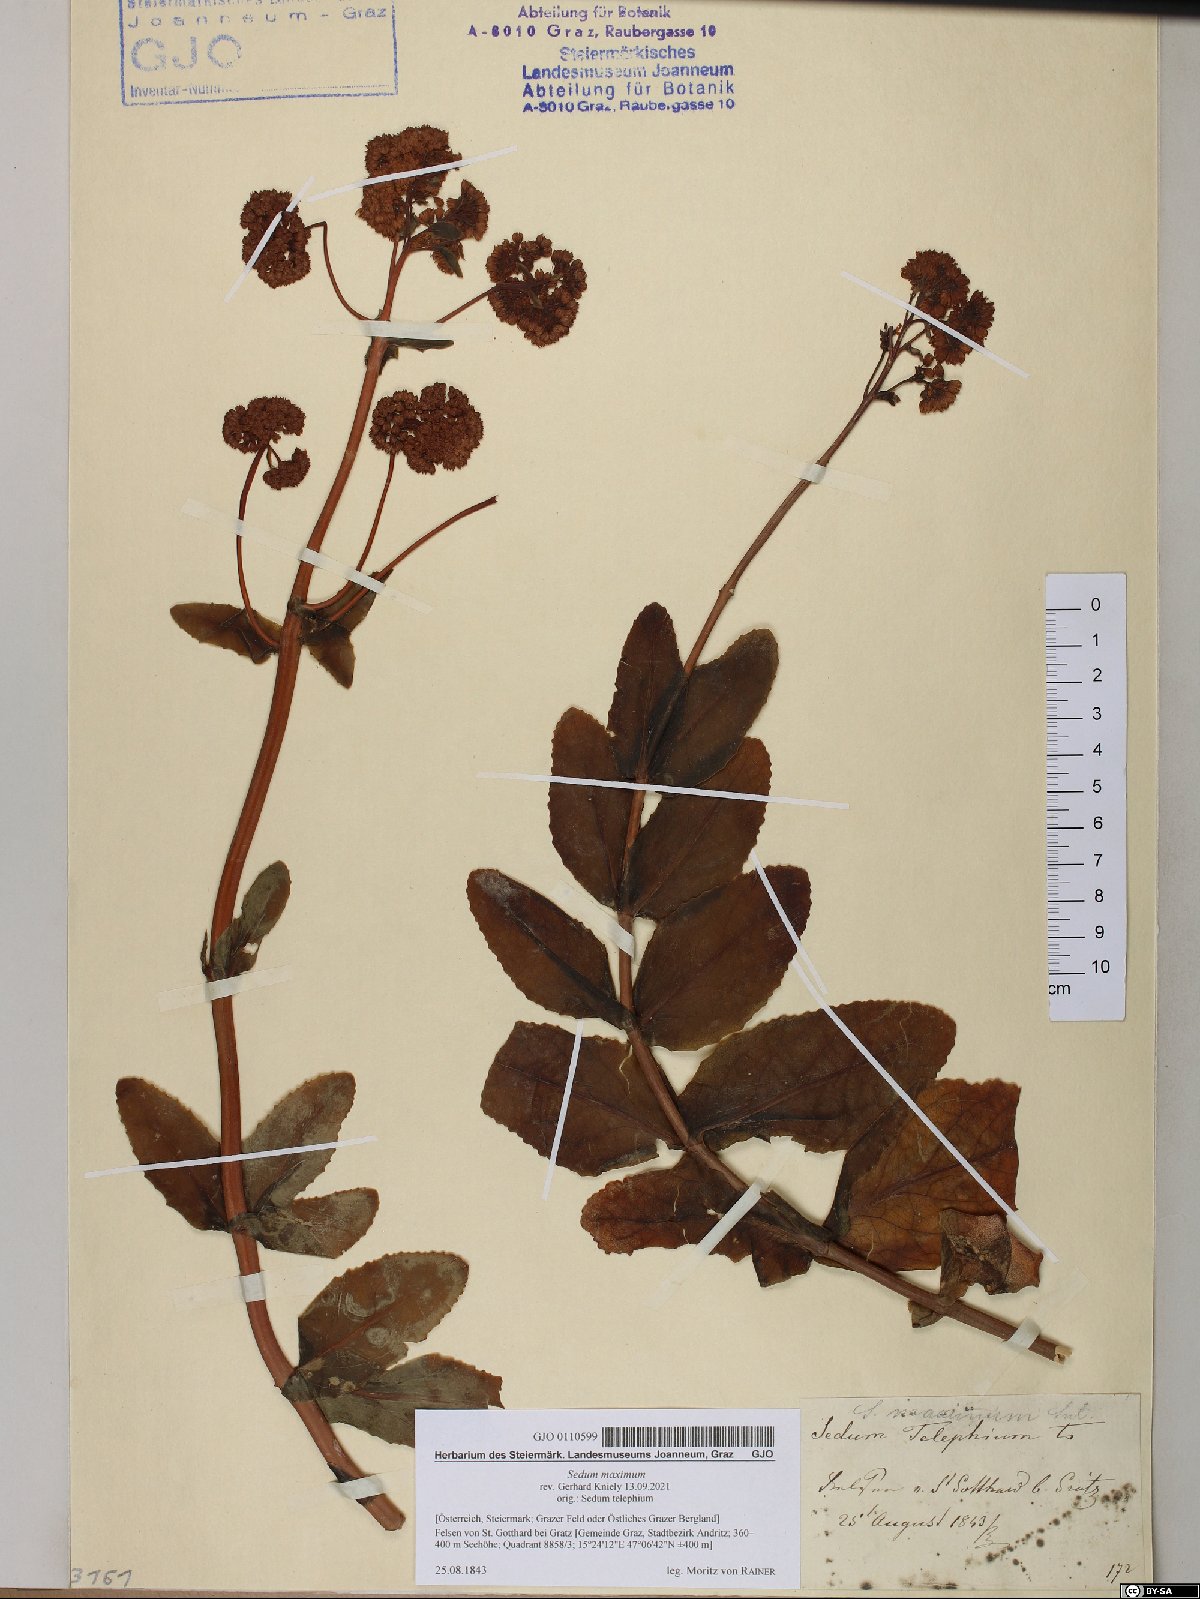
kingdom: Plantae
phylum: Tracheophyta
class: Magnoliopsida
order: Saxifragales
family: Crassulaceae
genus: Hylotelephium
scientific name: Hylotelephium maximum
